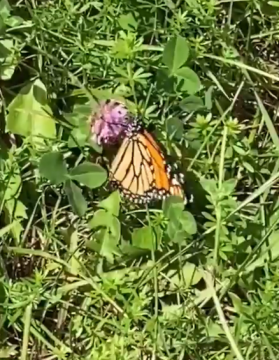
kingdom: Animalia
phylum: Arthropoda
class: Insecta
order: Lepidoptera
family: Nymphalidae
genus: Danaus
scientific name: Danaus plexippus
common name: Monarch
